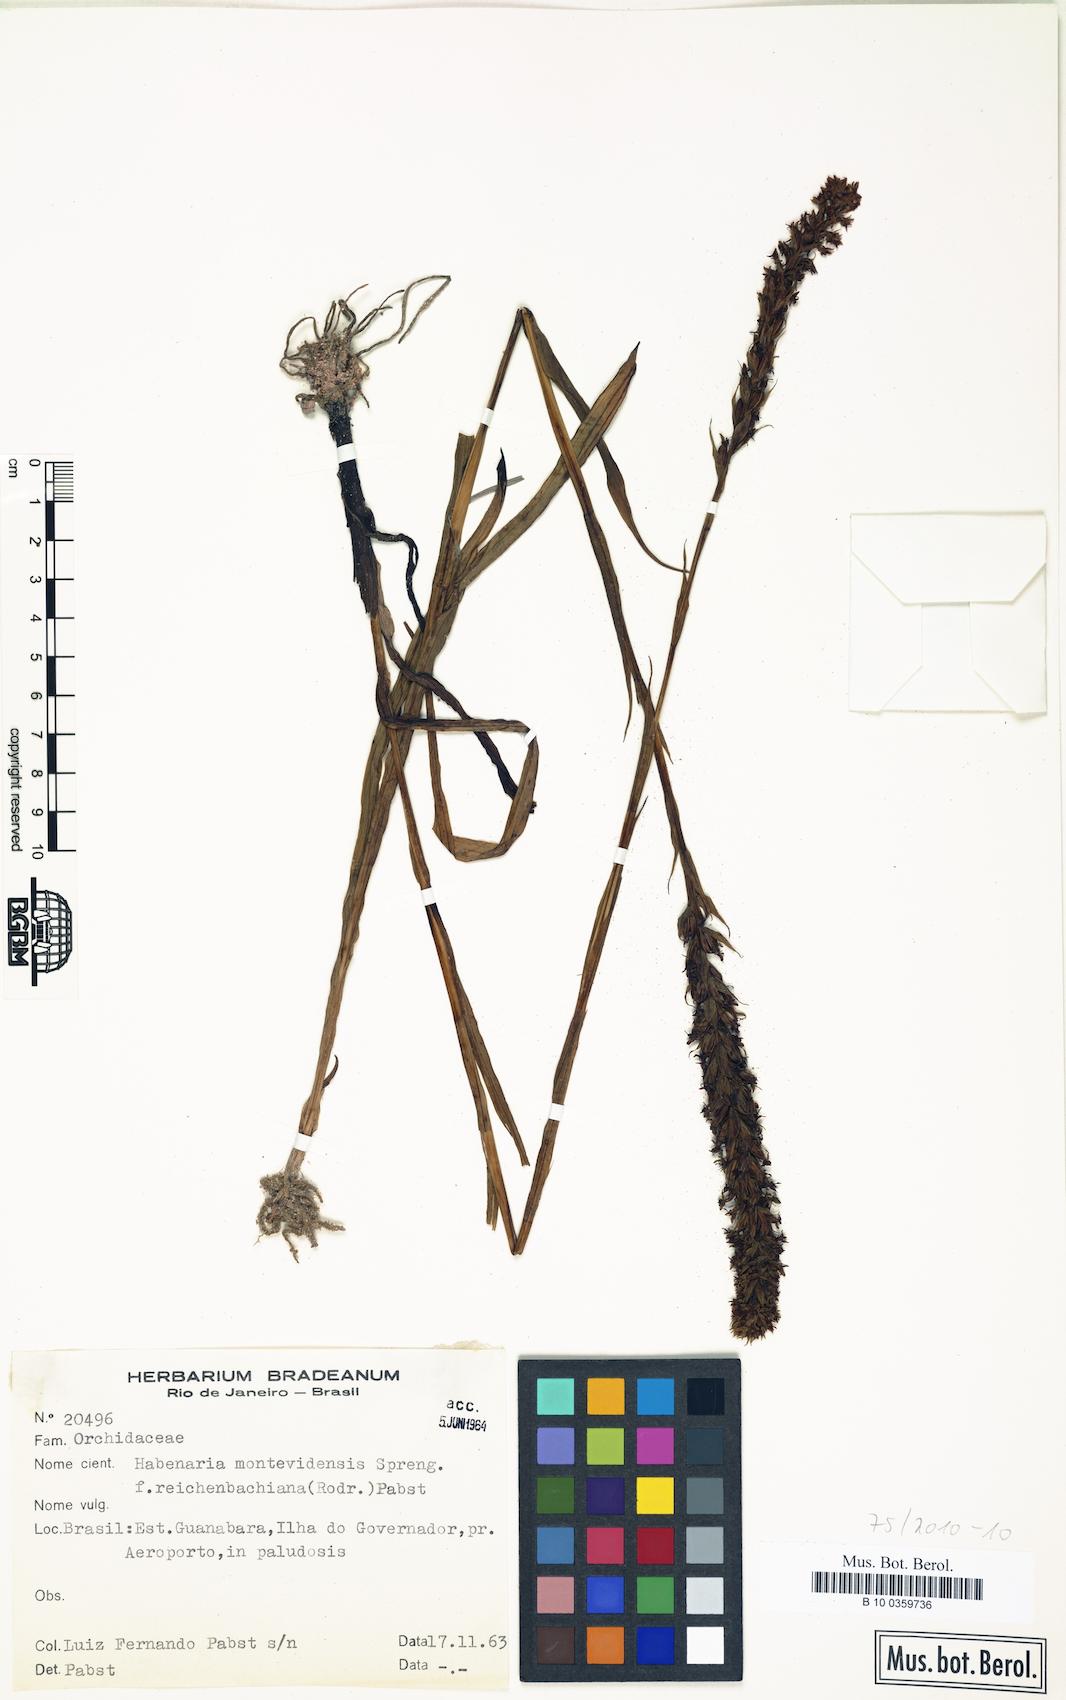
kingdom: Plantae
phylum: Tracheophyta
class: Liliopsida
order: Asparagales
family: Orchidaceae
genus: Habenaria
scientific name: Habenaria parviflora
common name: Small flowered habenaria
